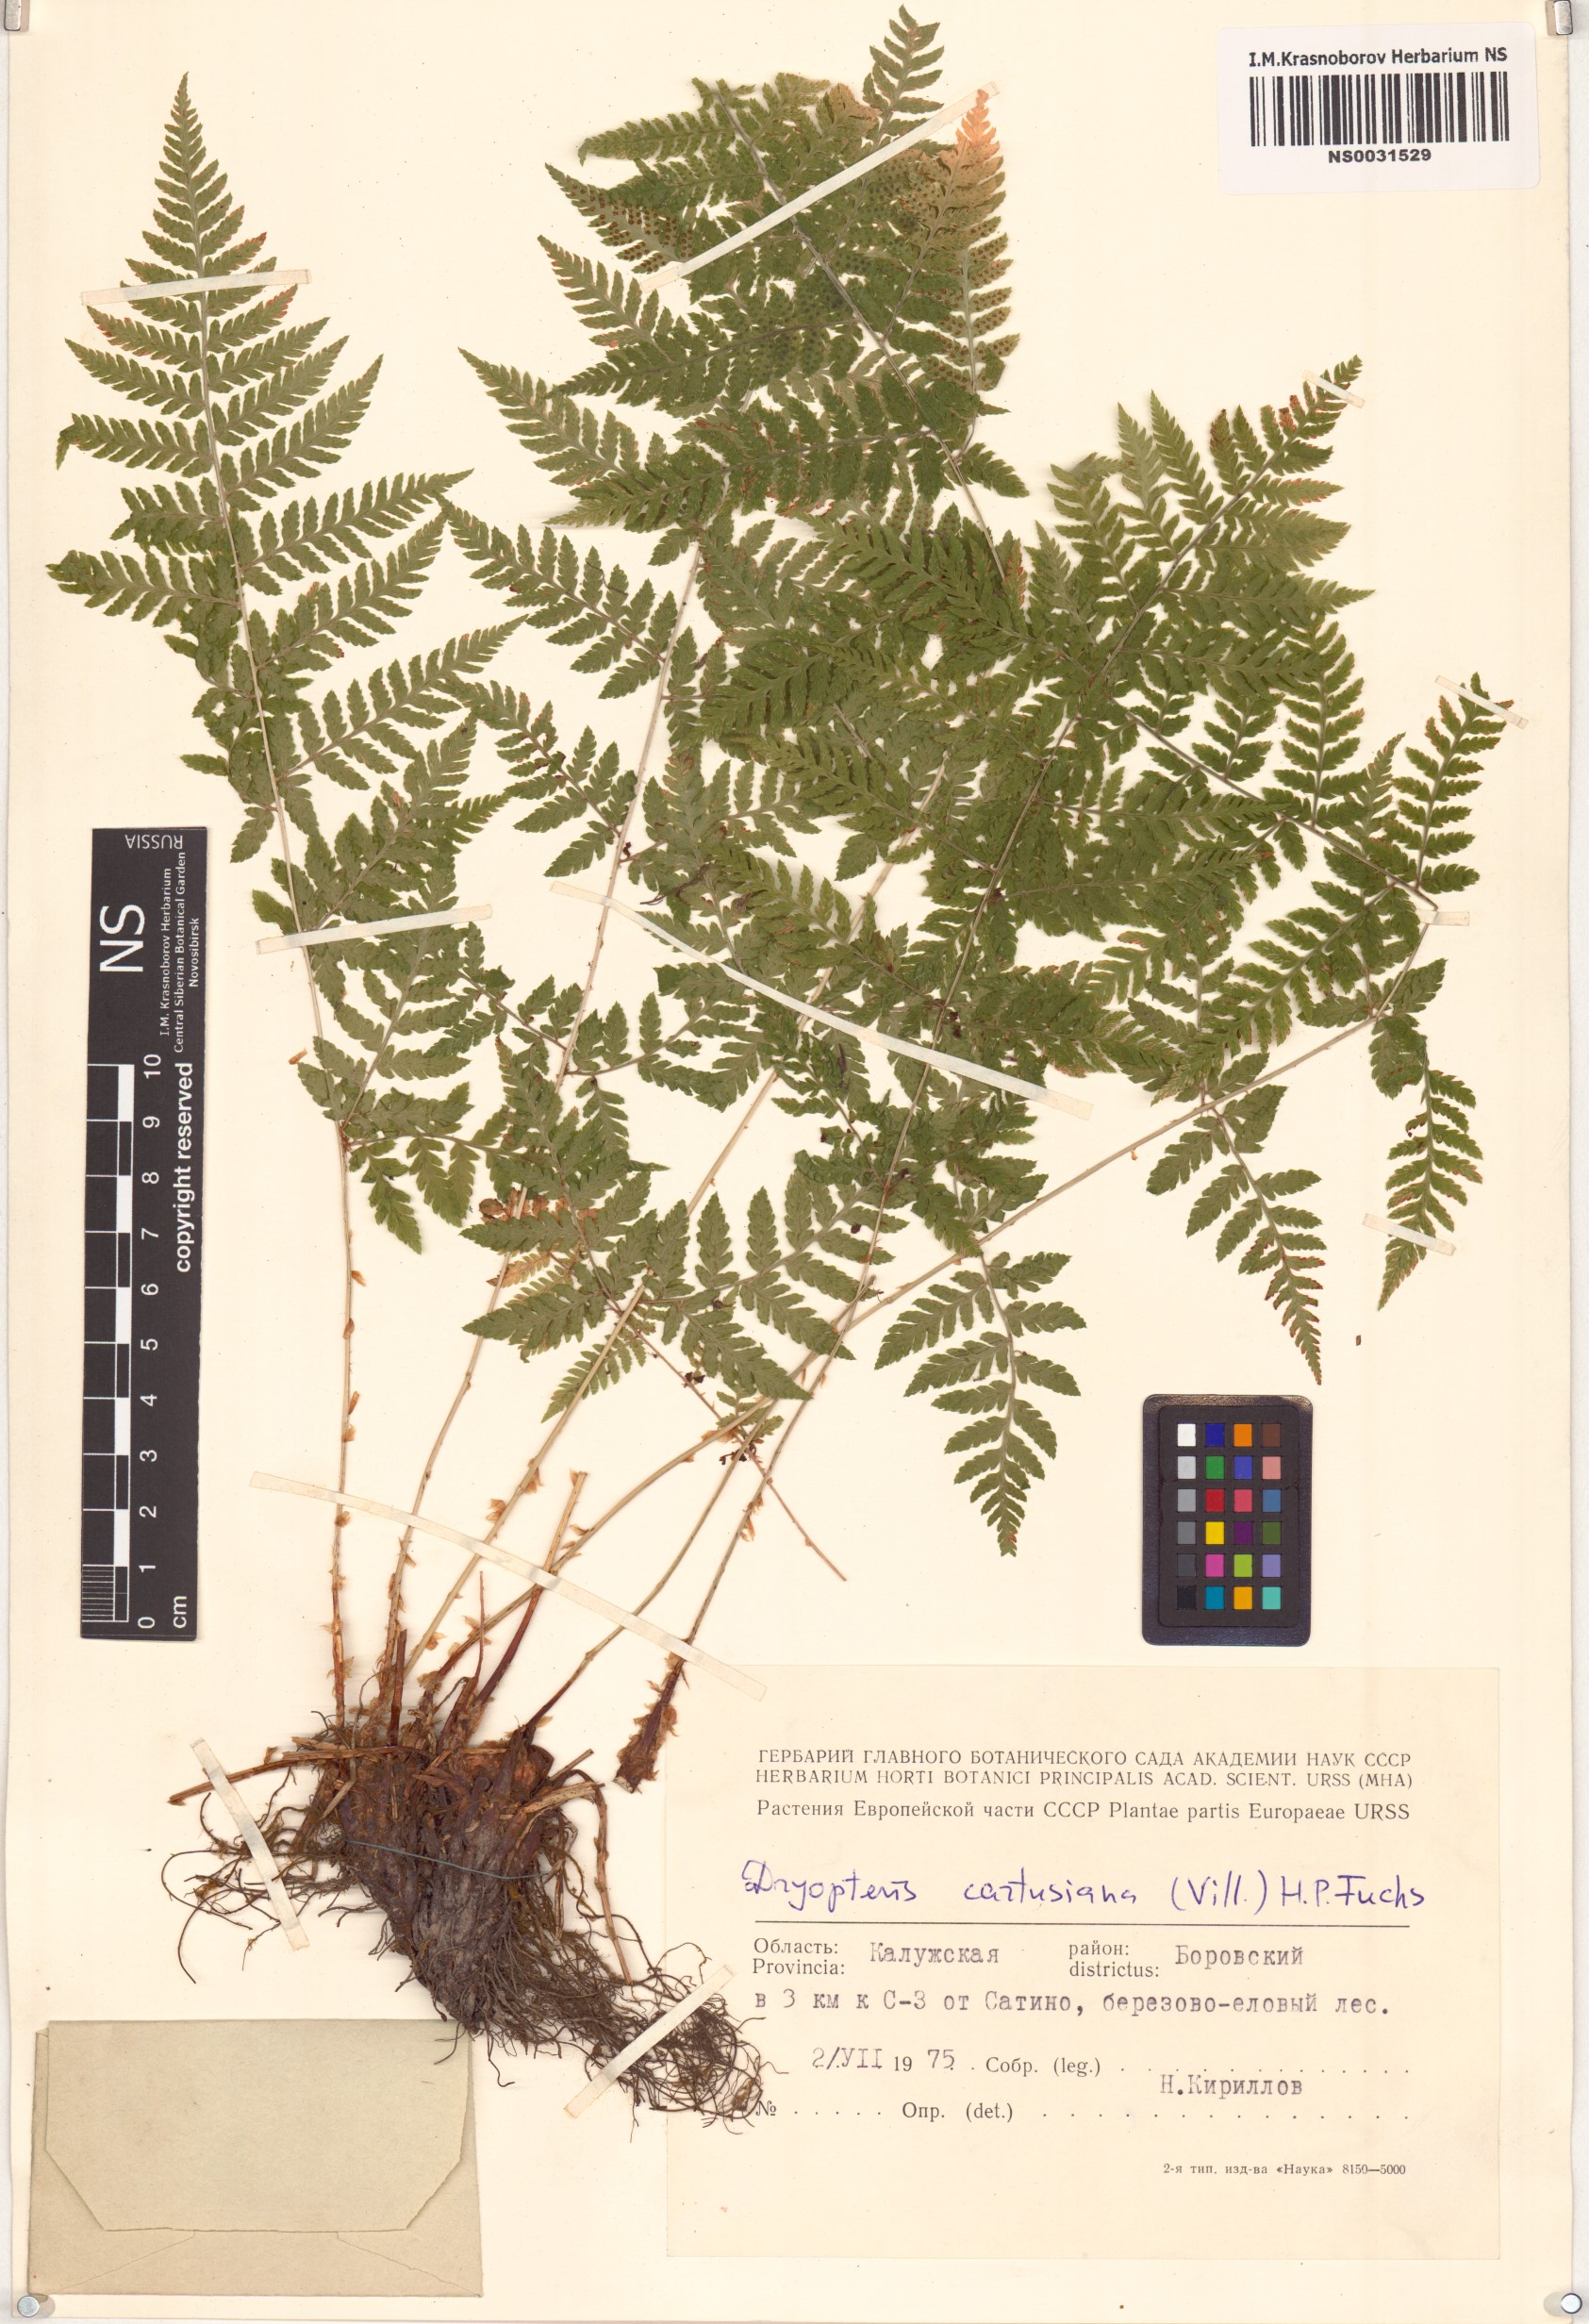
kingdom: Plantae
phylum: Tracheophyta
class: Polypodiopsida
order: Polypodiales
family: Dryopteridaceae
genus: Dryopteris
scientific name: Dryopteris carthusiana
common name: Narrow buckler-fern
